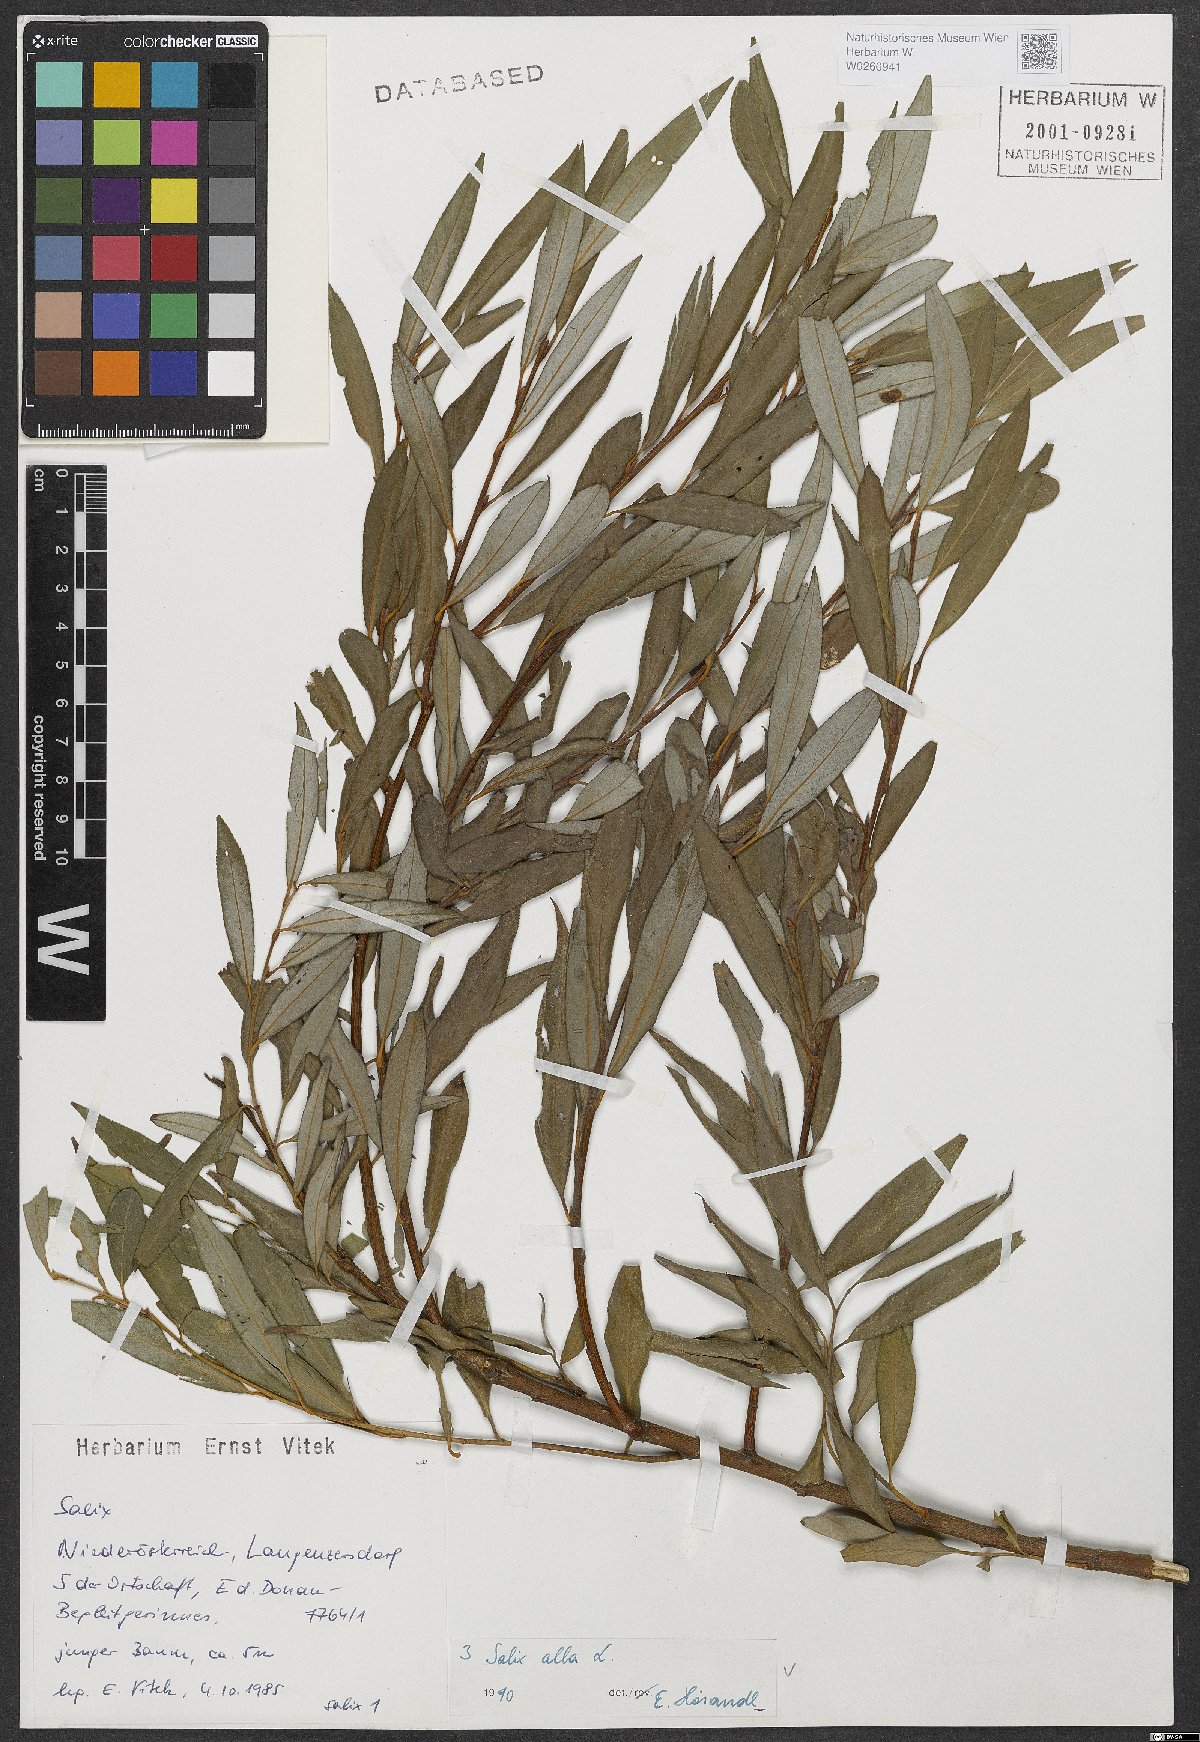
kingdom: Plantae
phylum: Tracheophyta
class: Magnoliopsida
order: Malpighiales
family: Salicaceae
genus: Salix
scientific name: Salix alba
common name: White willow
